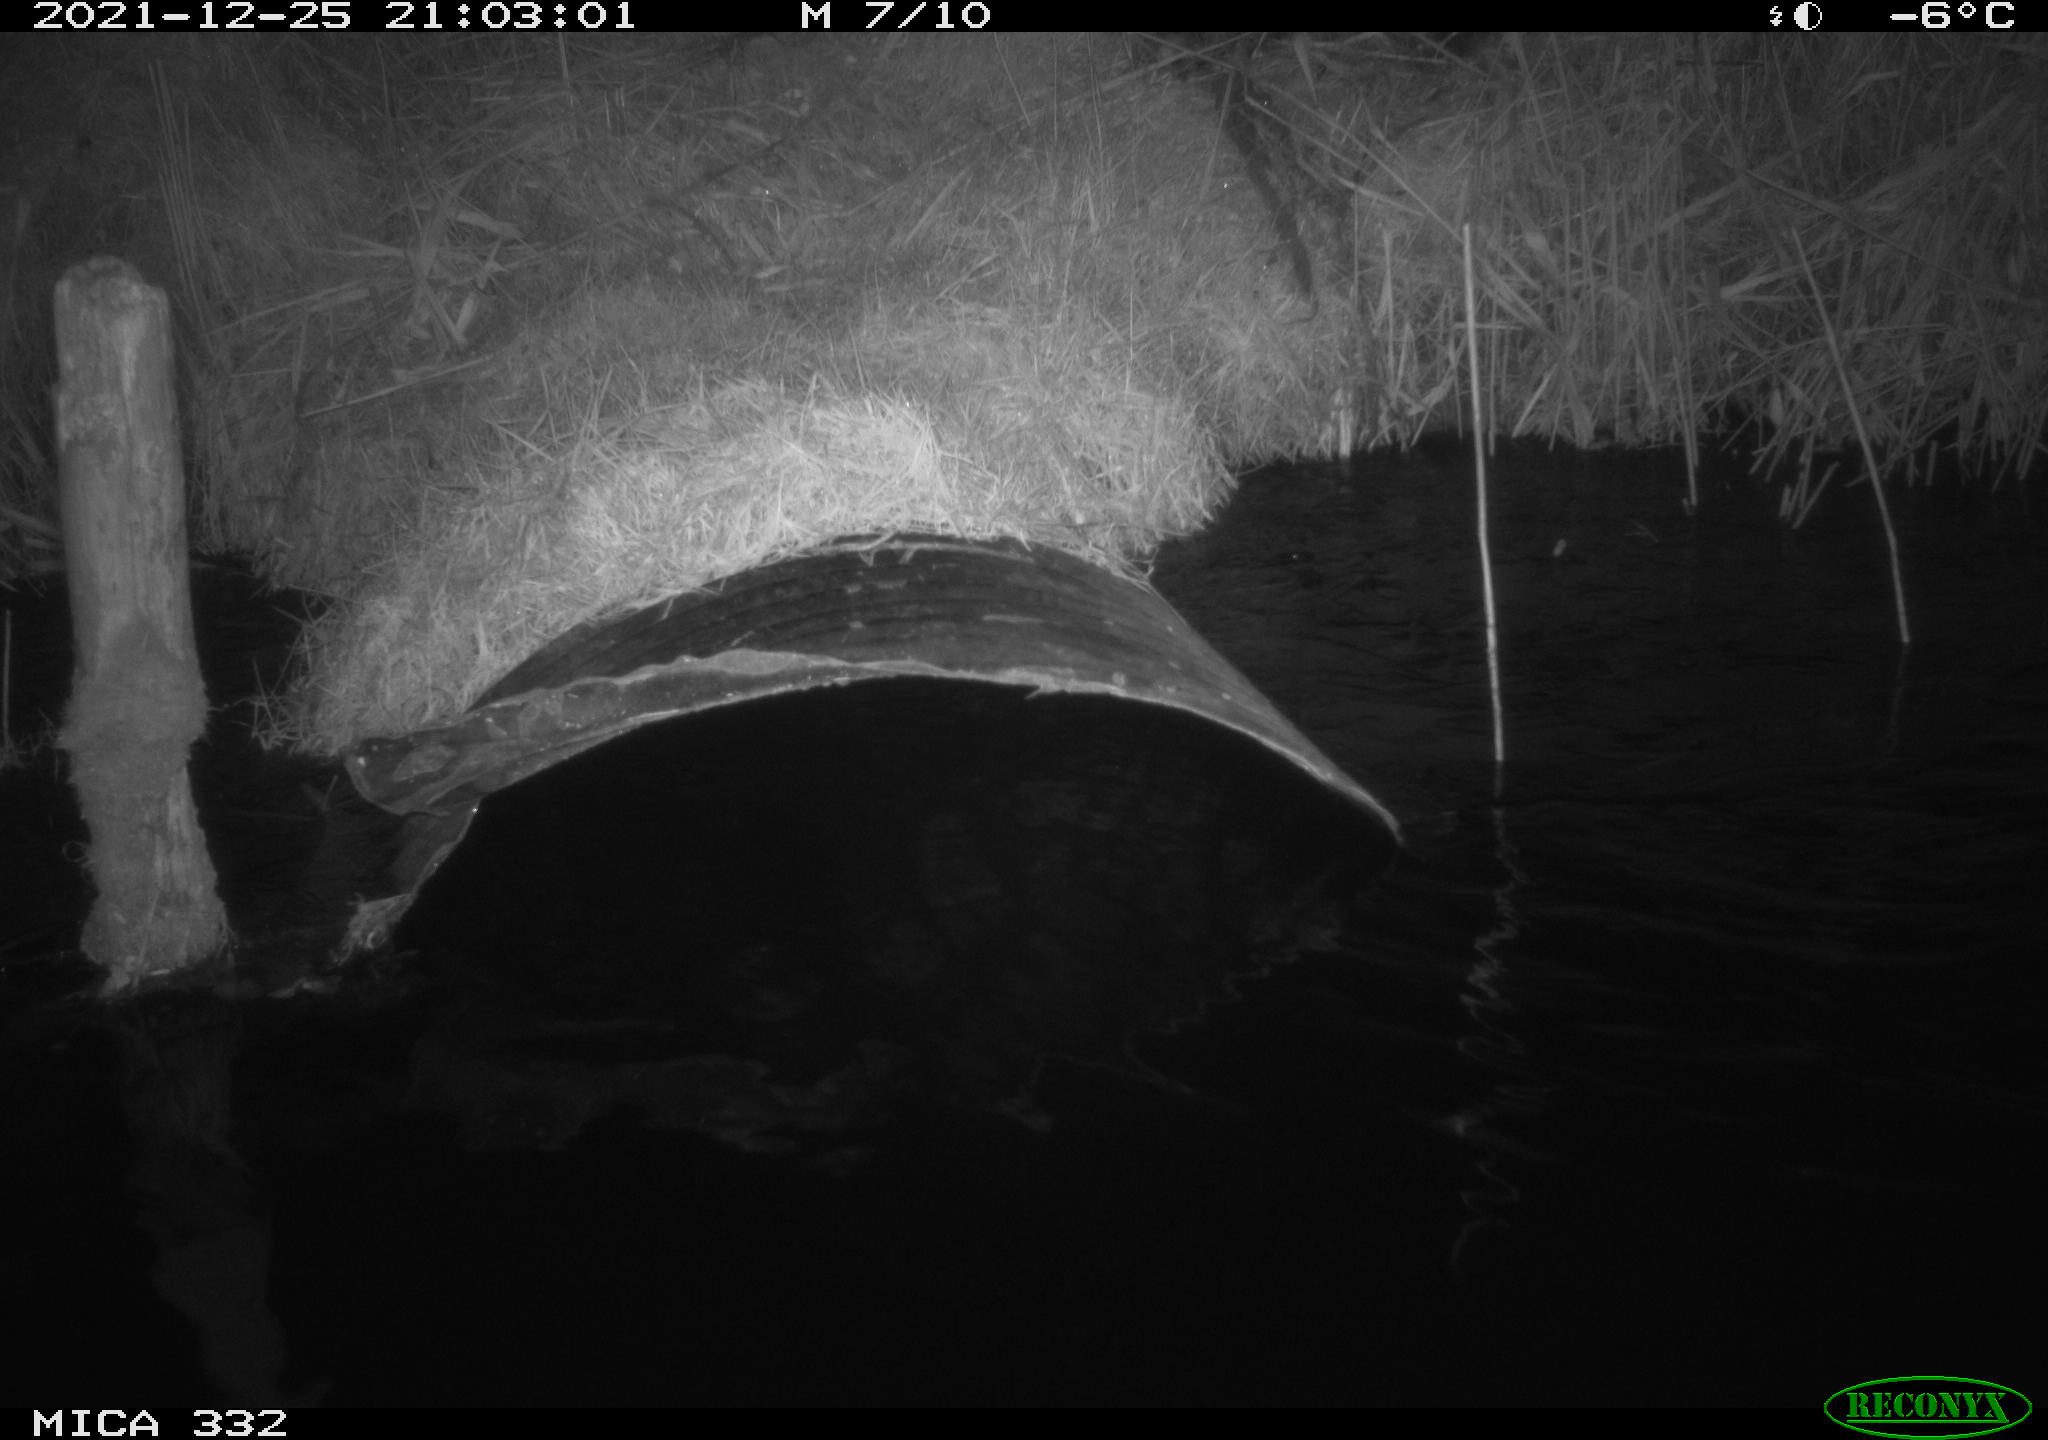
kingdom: Animalia
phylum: Chordata
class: Aves
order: Anseriformes
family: Anatidae
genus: Anas
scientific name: Anas platyrhynchos
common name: Mallard
